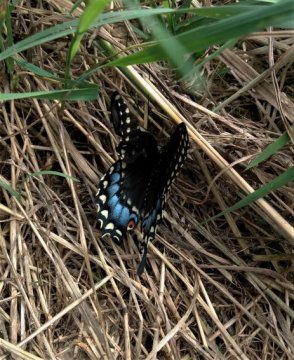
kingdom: Animalia
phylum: Arthropoda
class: Insecta
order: Lepidoptera
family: Papilionidae
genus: Papilio
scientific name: Papilio polyxenes
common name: Black Swallowtail
